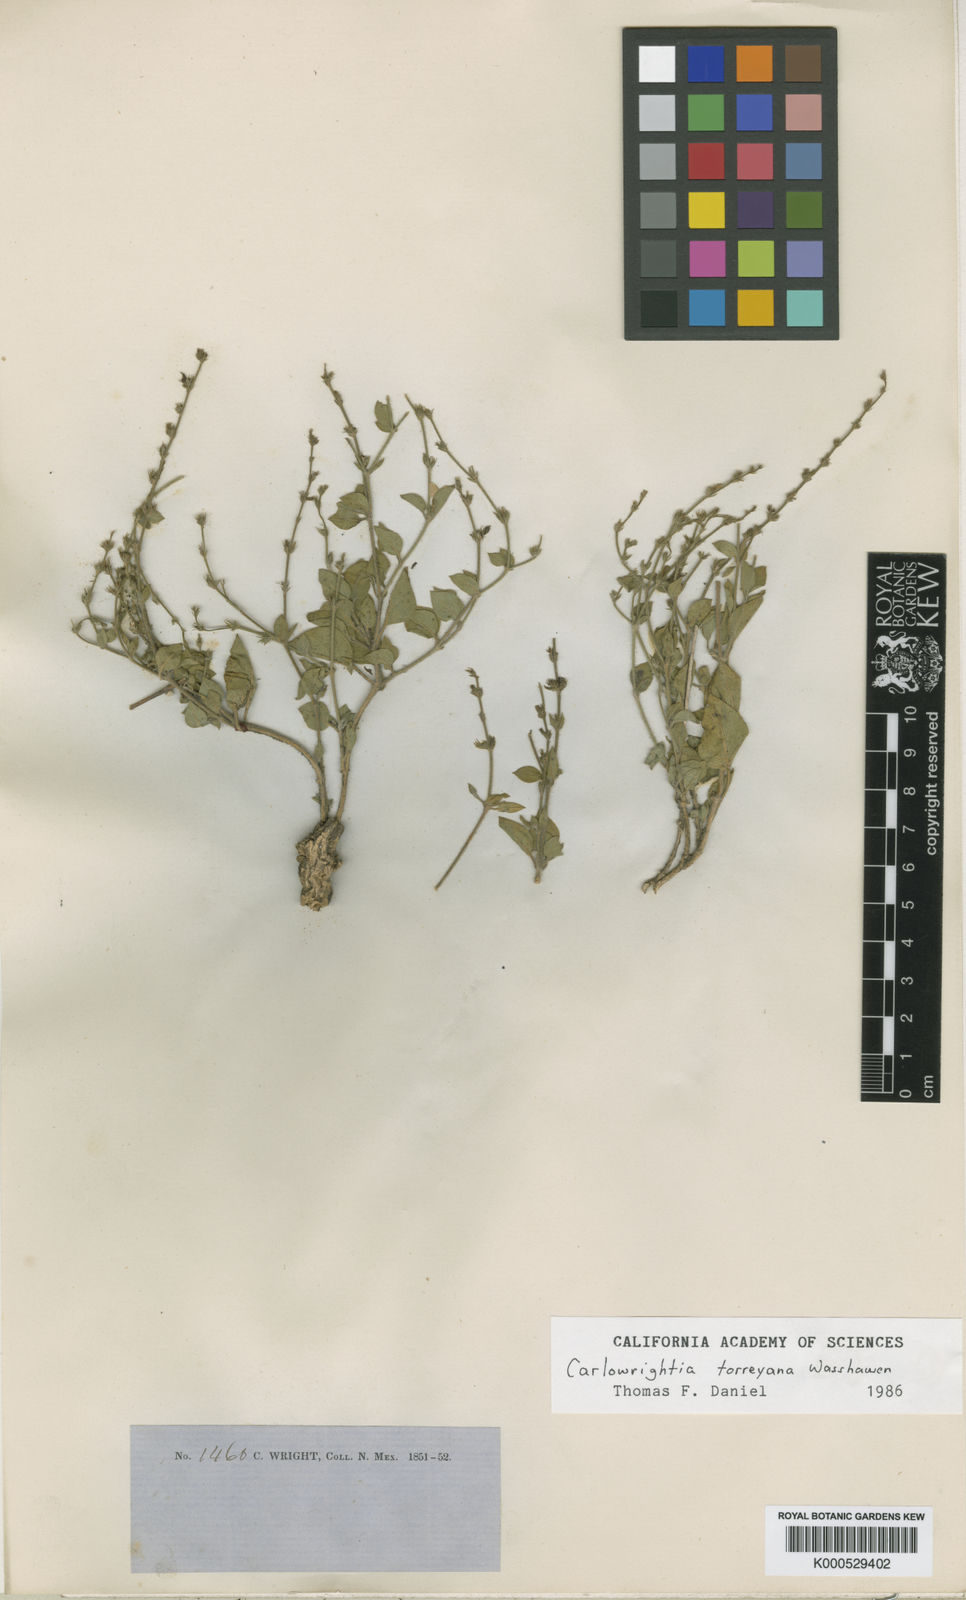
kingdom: Plantae
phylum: Tracheophyta
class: Magnoliopsida
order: Lamiales
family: Acanthaceae
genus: Carlowrightia
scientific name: Carlowrightia torreyana
